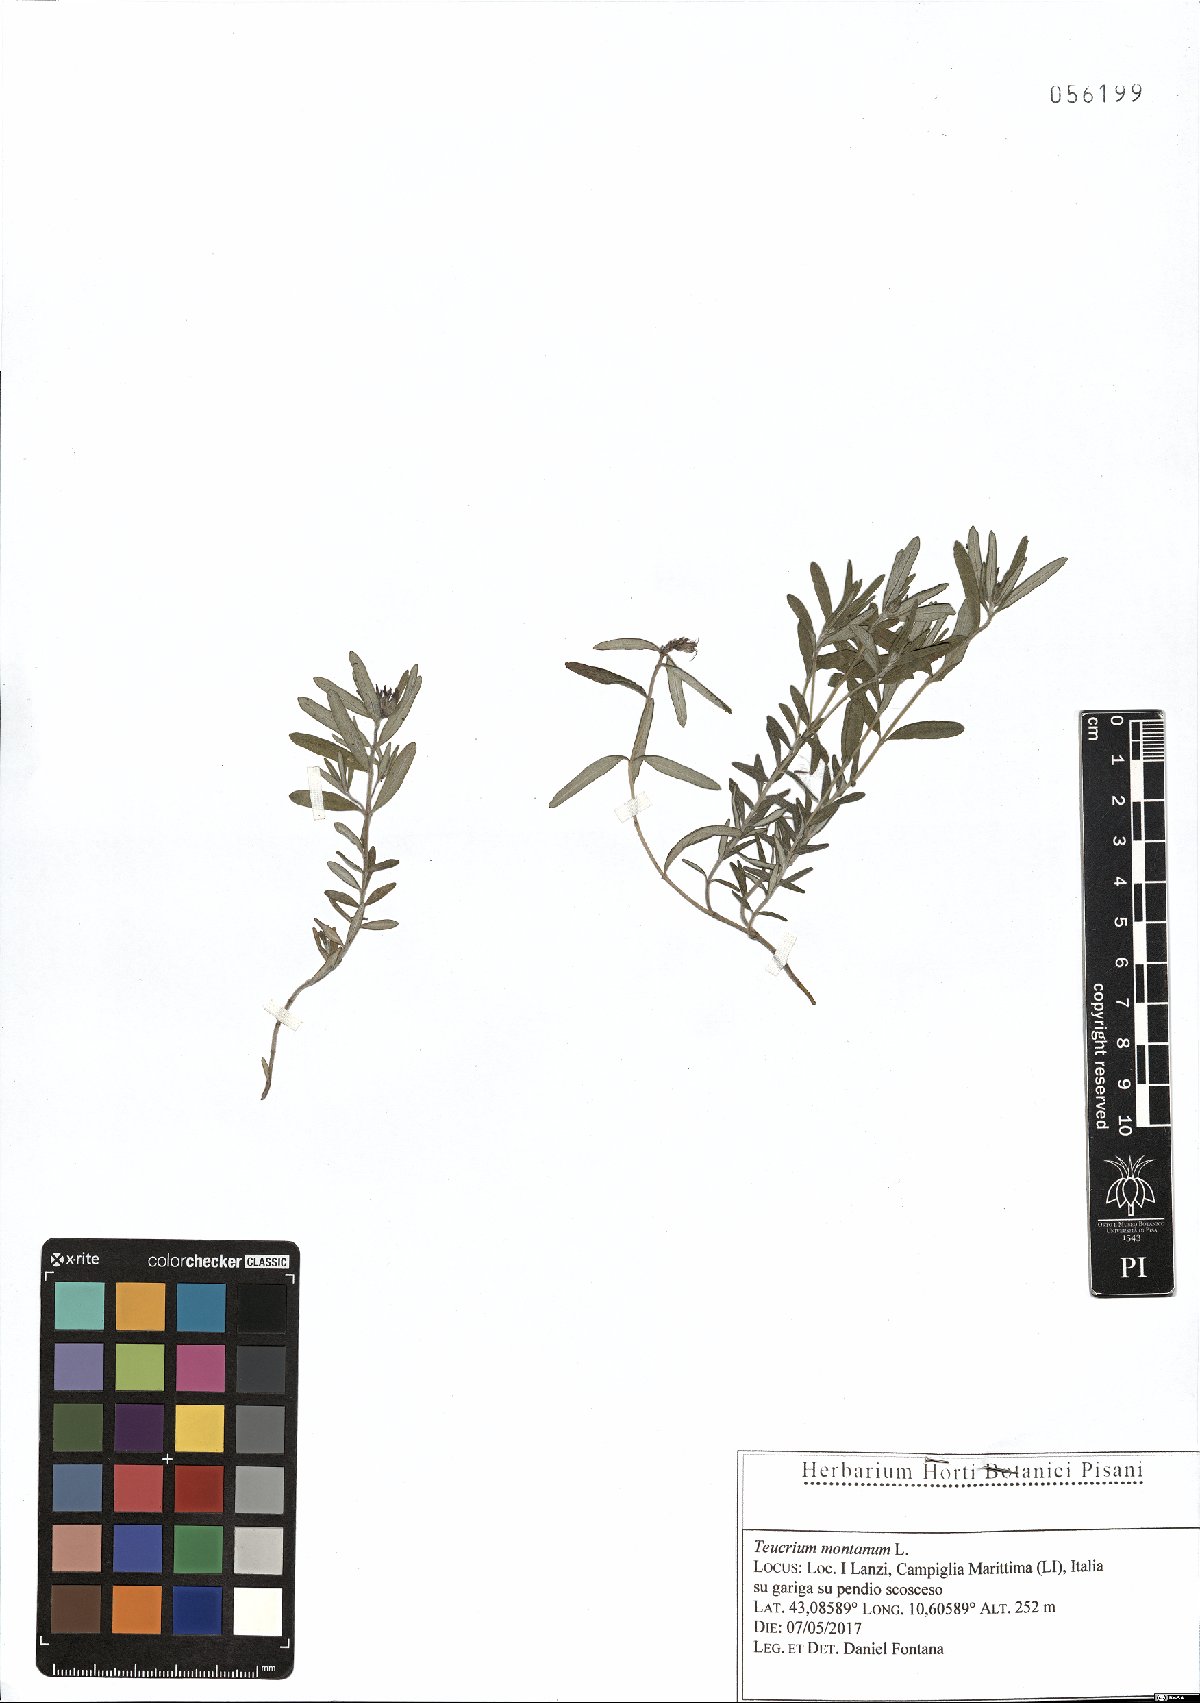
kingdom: Plantae
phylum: Tracheophyta
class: Magnoliopsida
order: Lamiales
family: Lamiaceae
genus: Teucrium
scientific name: Teucrium montanum
